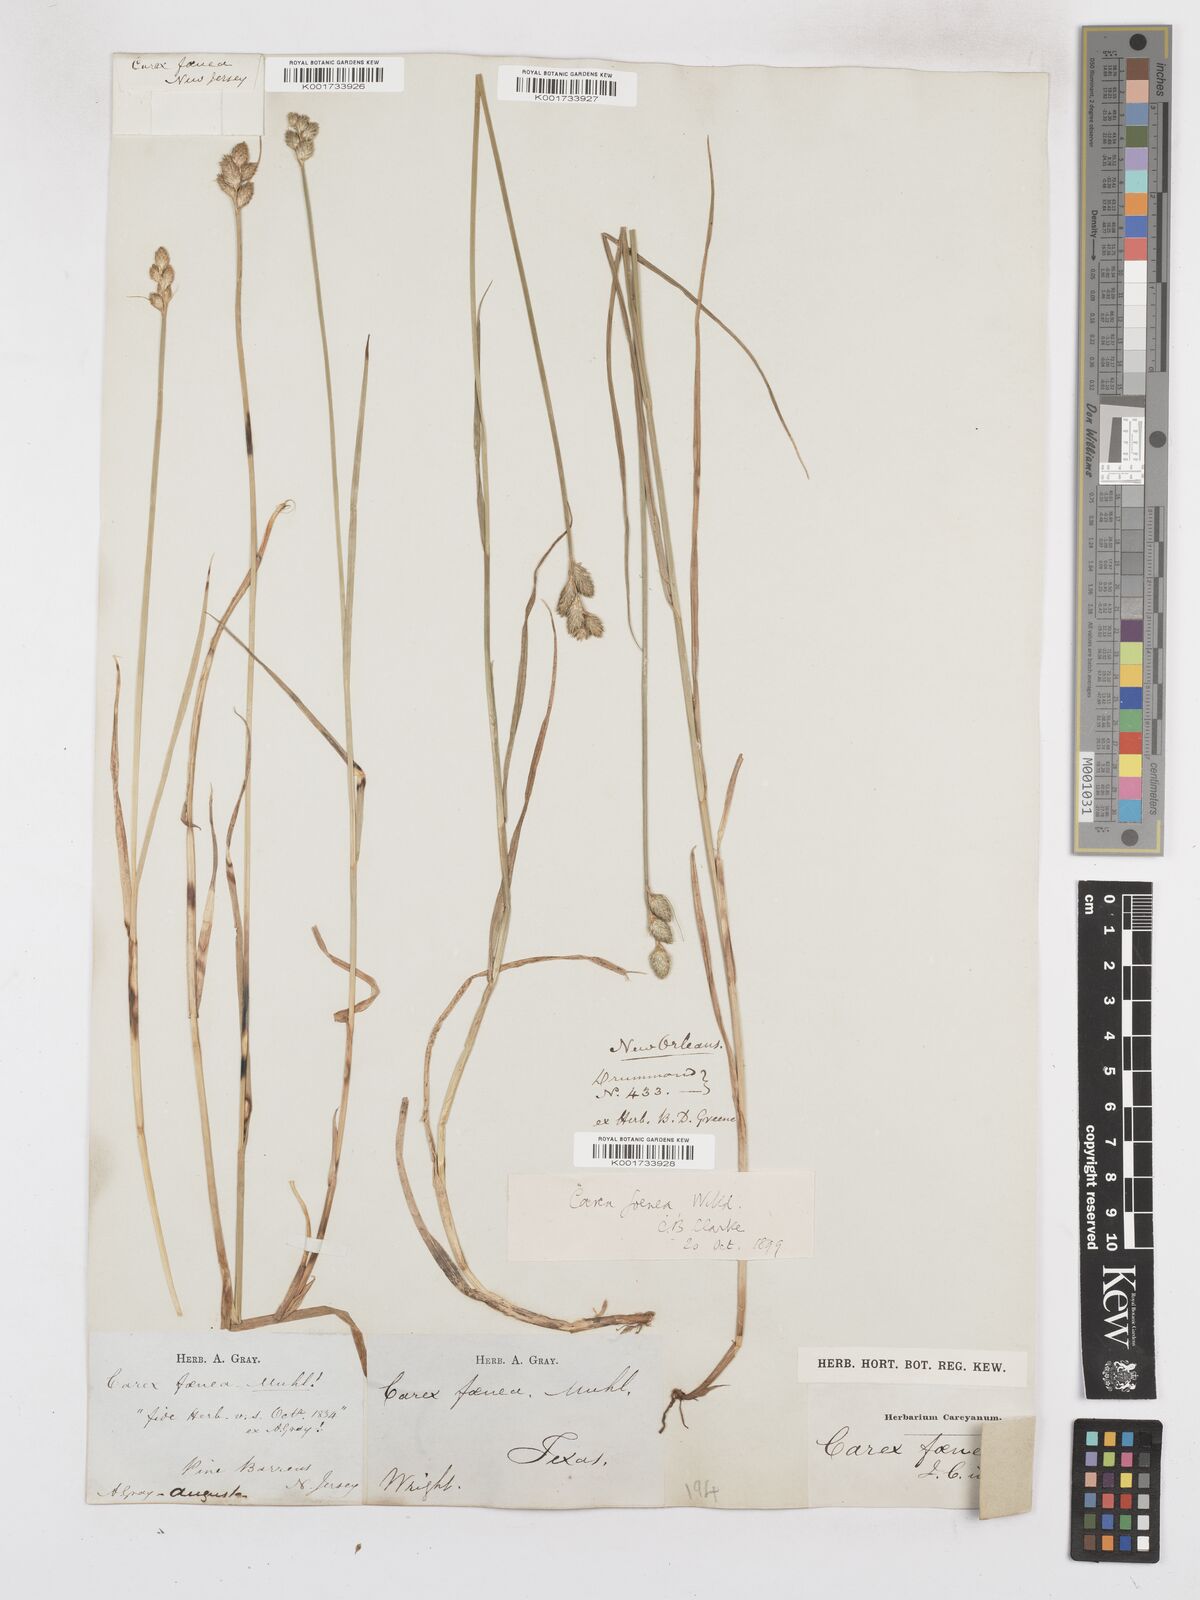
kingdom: Plantae
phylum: Tracheophyta
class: Liliopsida
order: Poales
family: Cyperaceae
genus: Carex
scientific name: Carex argyrantha
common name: Silvery-flowered sedge
